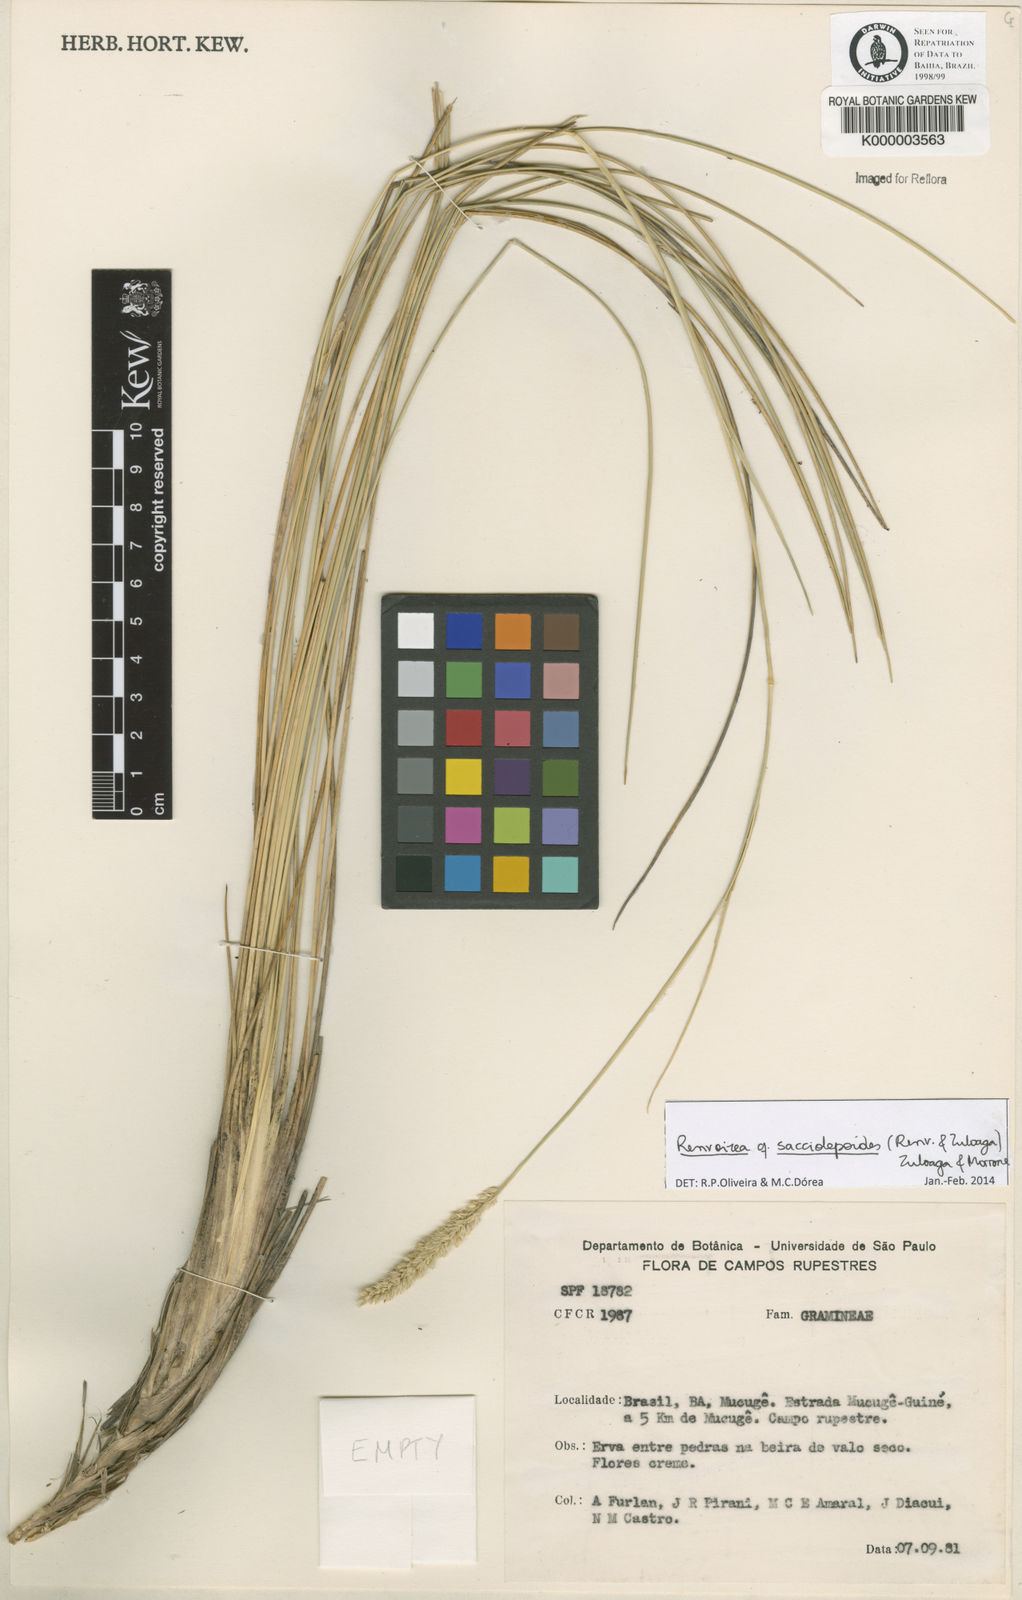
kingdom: Plantae
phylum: Tracheophyta
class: Liliopsida
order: Poales
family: Poaceae
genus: Renvoizea
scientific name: Renvoizea lagostachya
